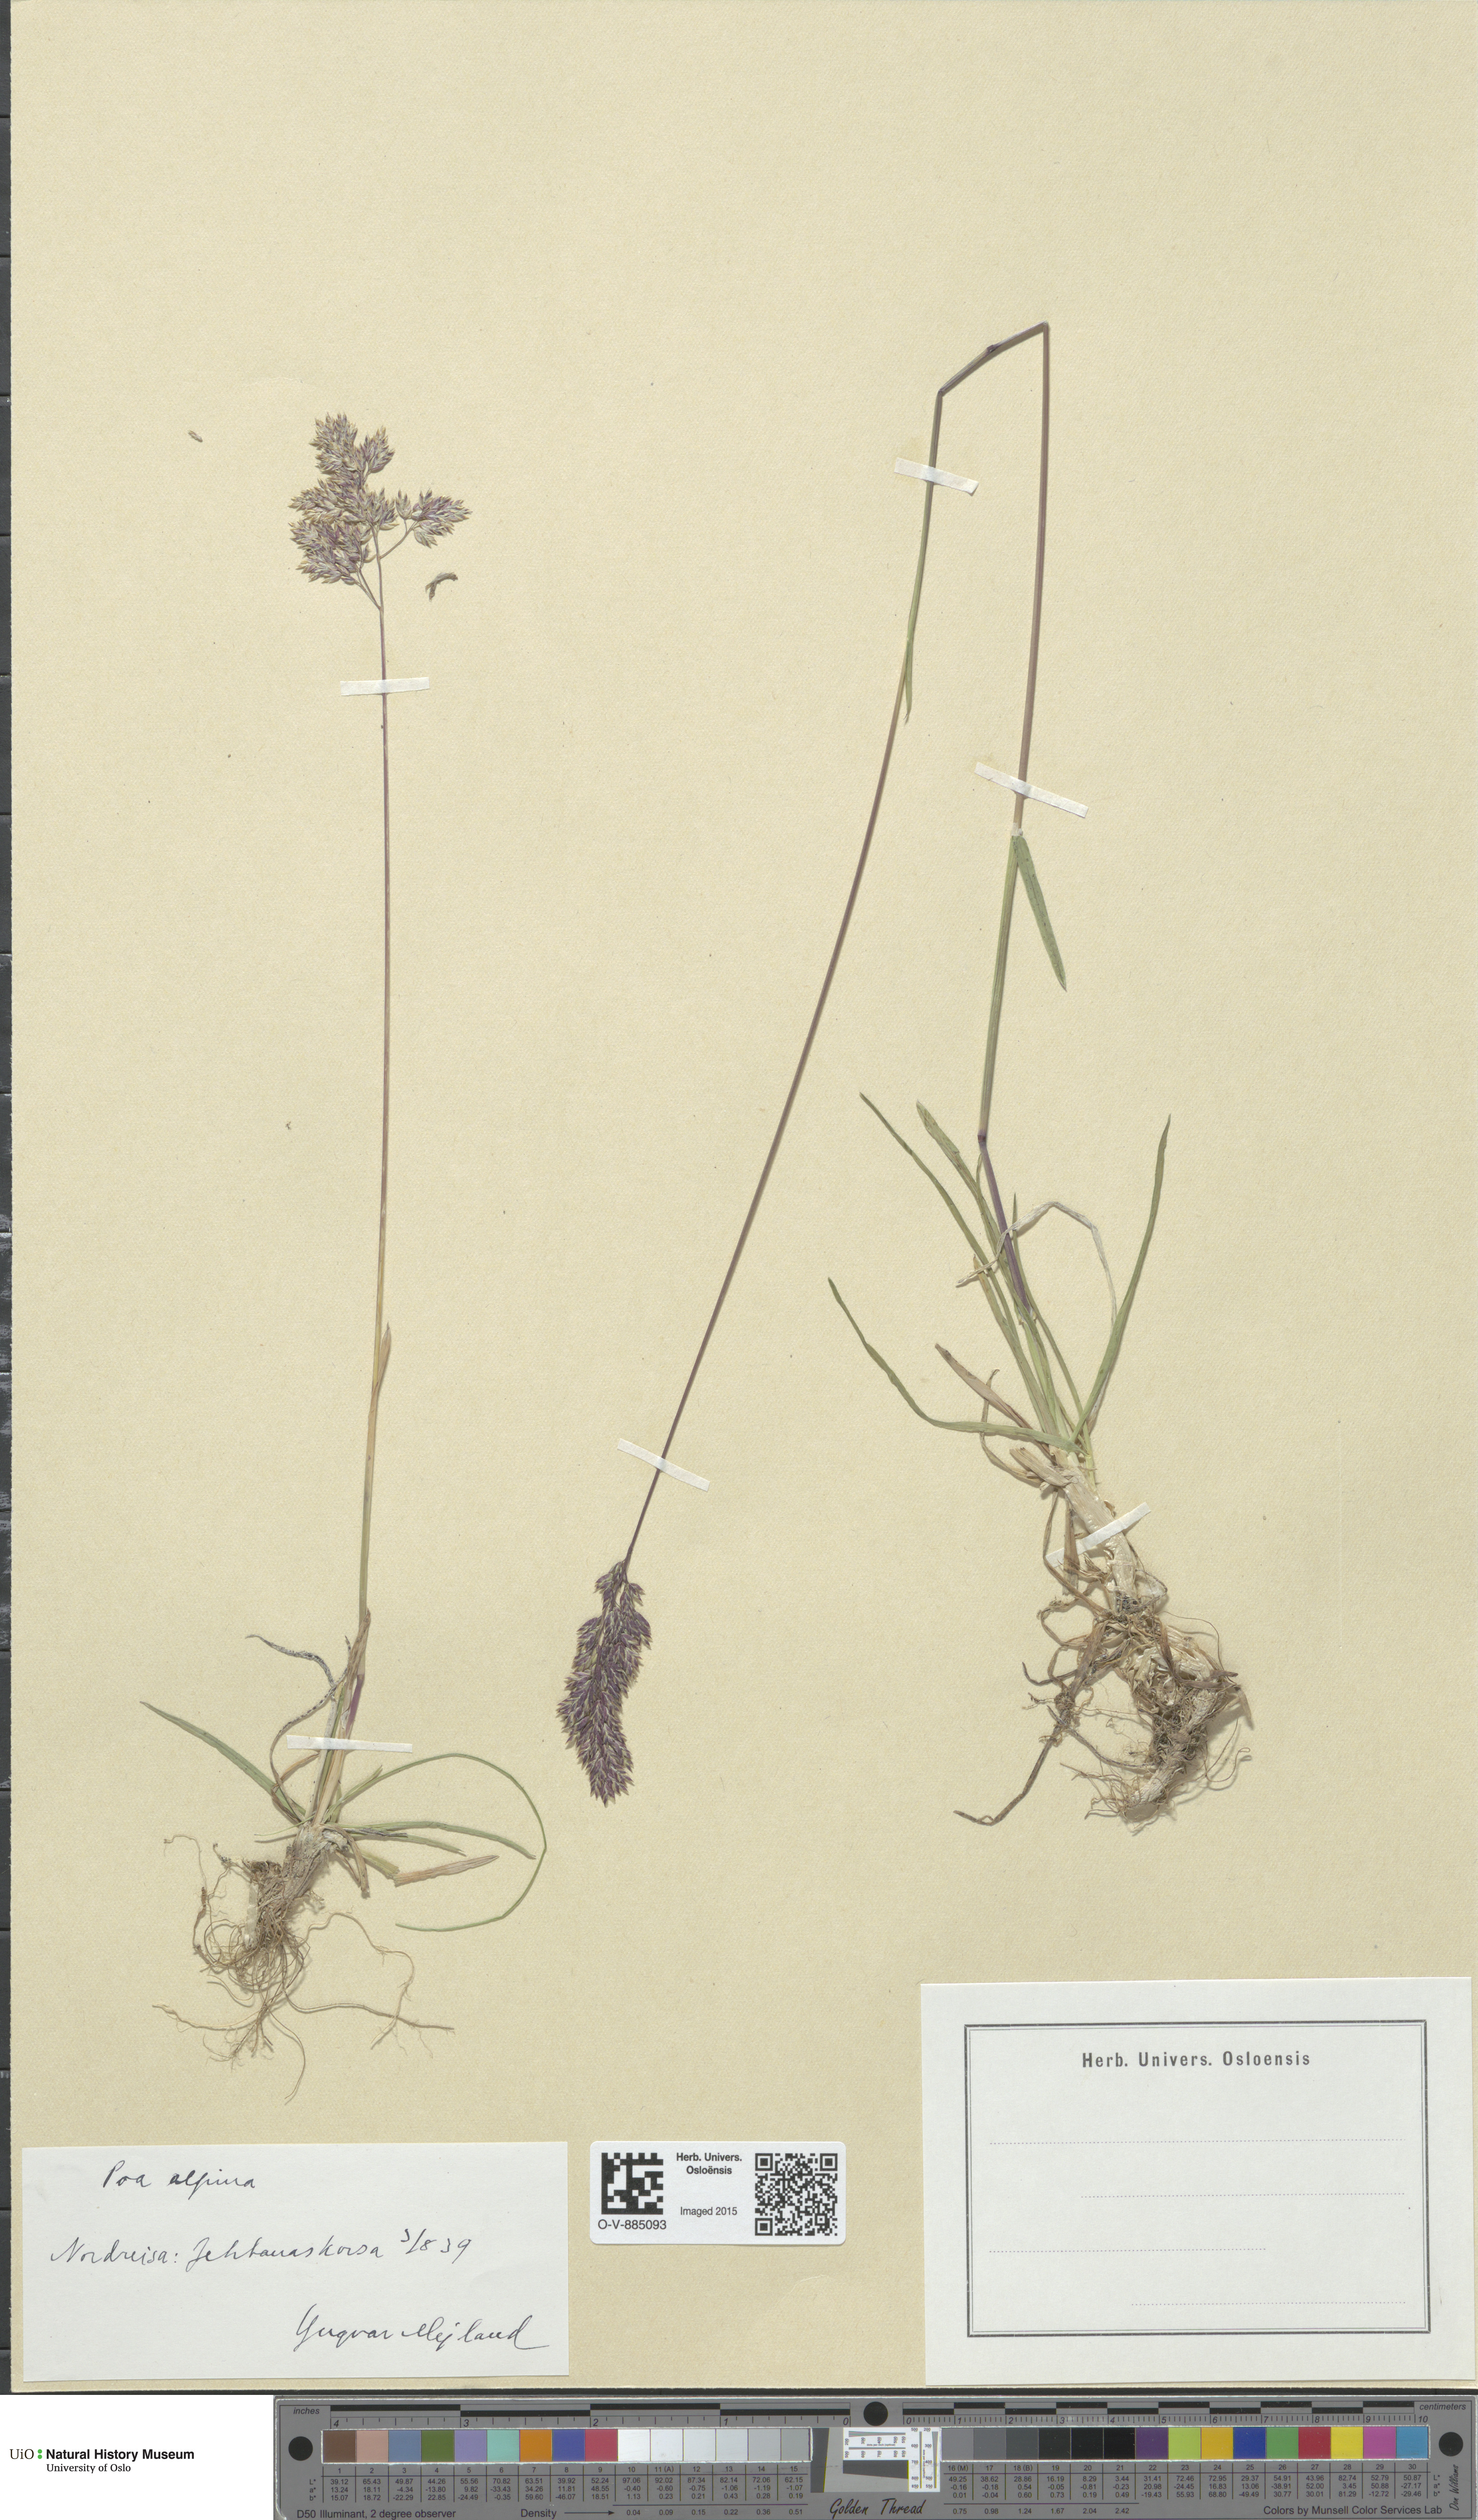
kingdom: Plantae
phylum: Tracheophyta
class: Liliopsida
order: Poales
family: Poaceae
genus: Poa
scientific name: Poa alpina
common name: Alpine bluegrass
